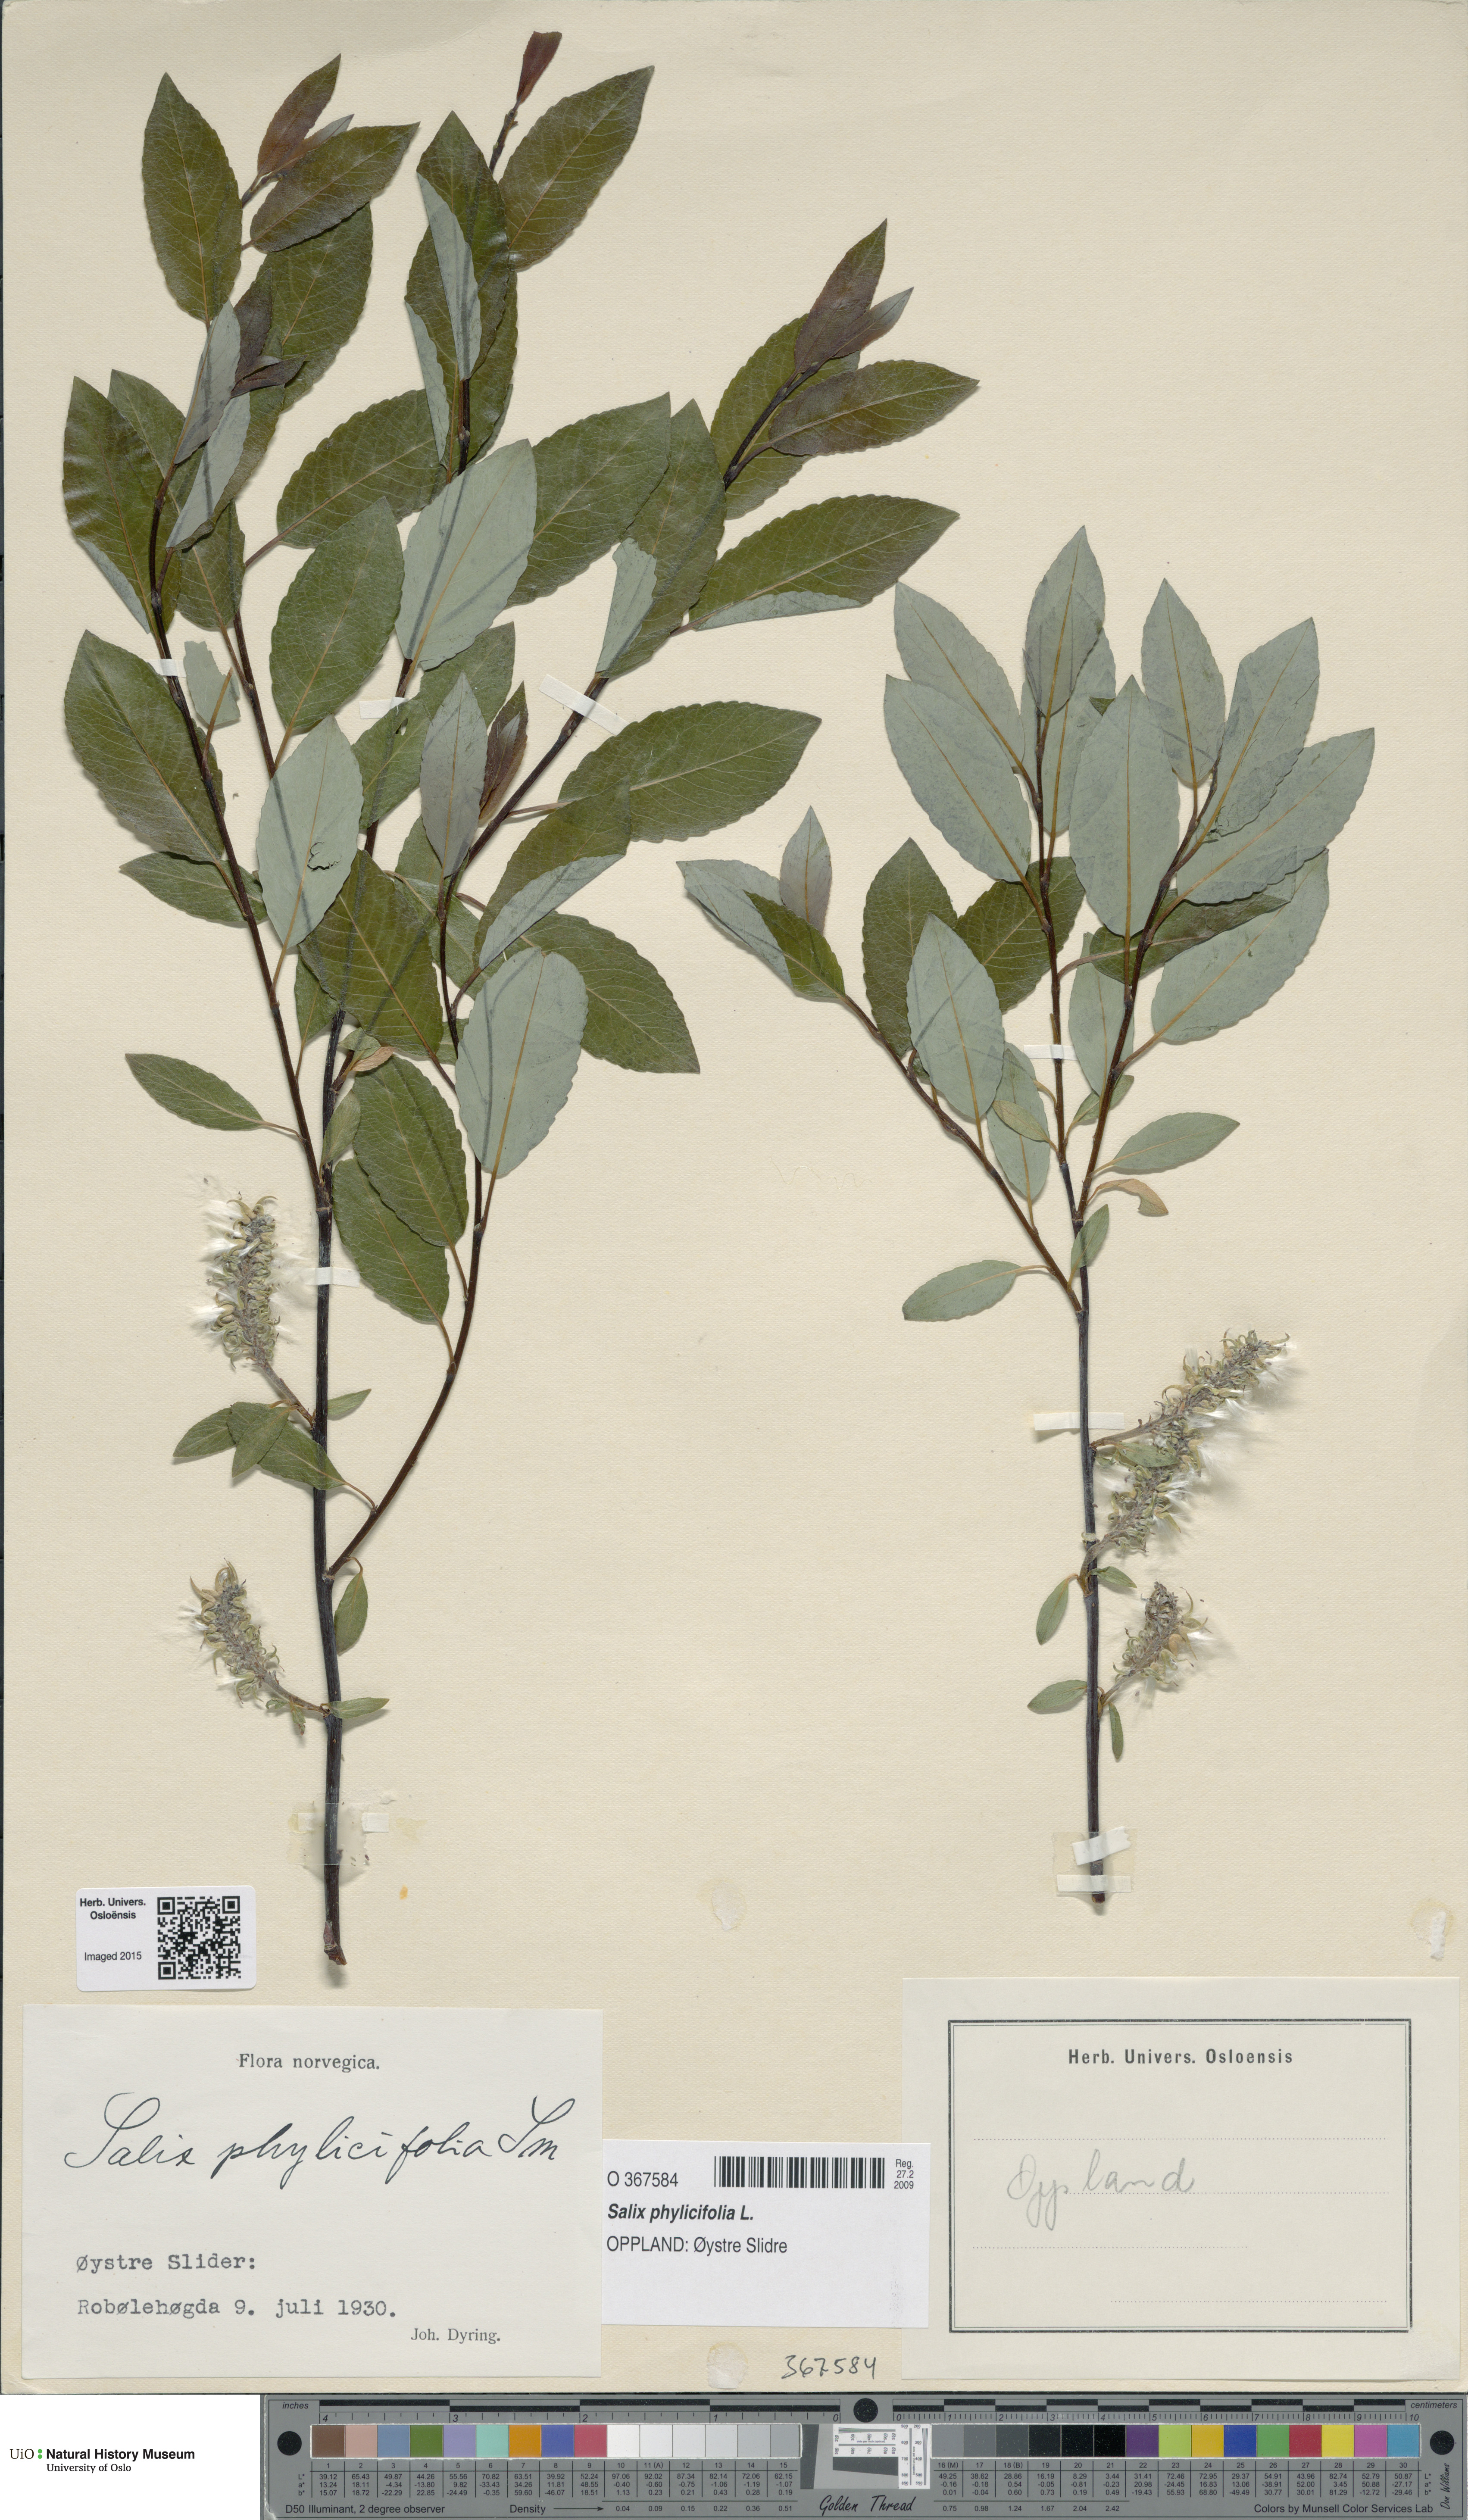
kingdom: Plantae
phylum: Tracheophyta
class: Magnoliopsida
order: Malpighiales
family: Salicaceae
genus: Salix
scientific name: Salix phylicifolia
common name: Tea-leaved willow
